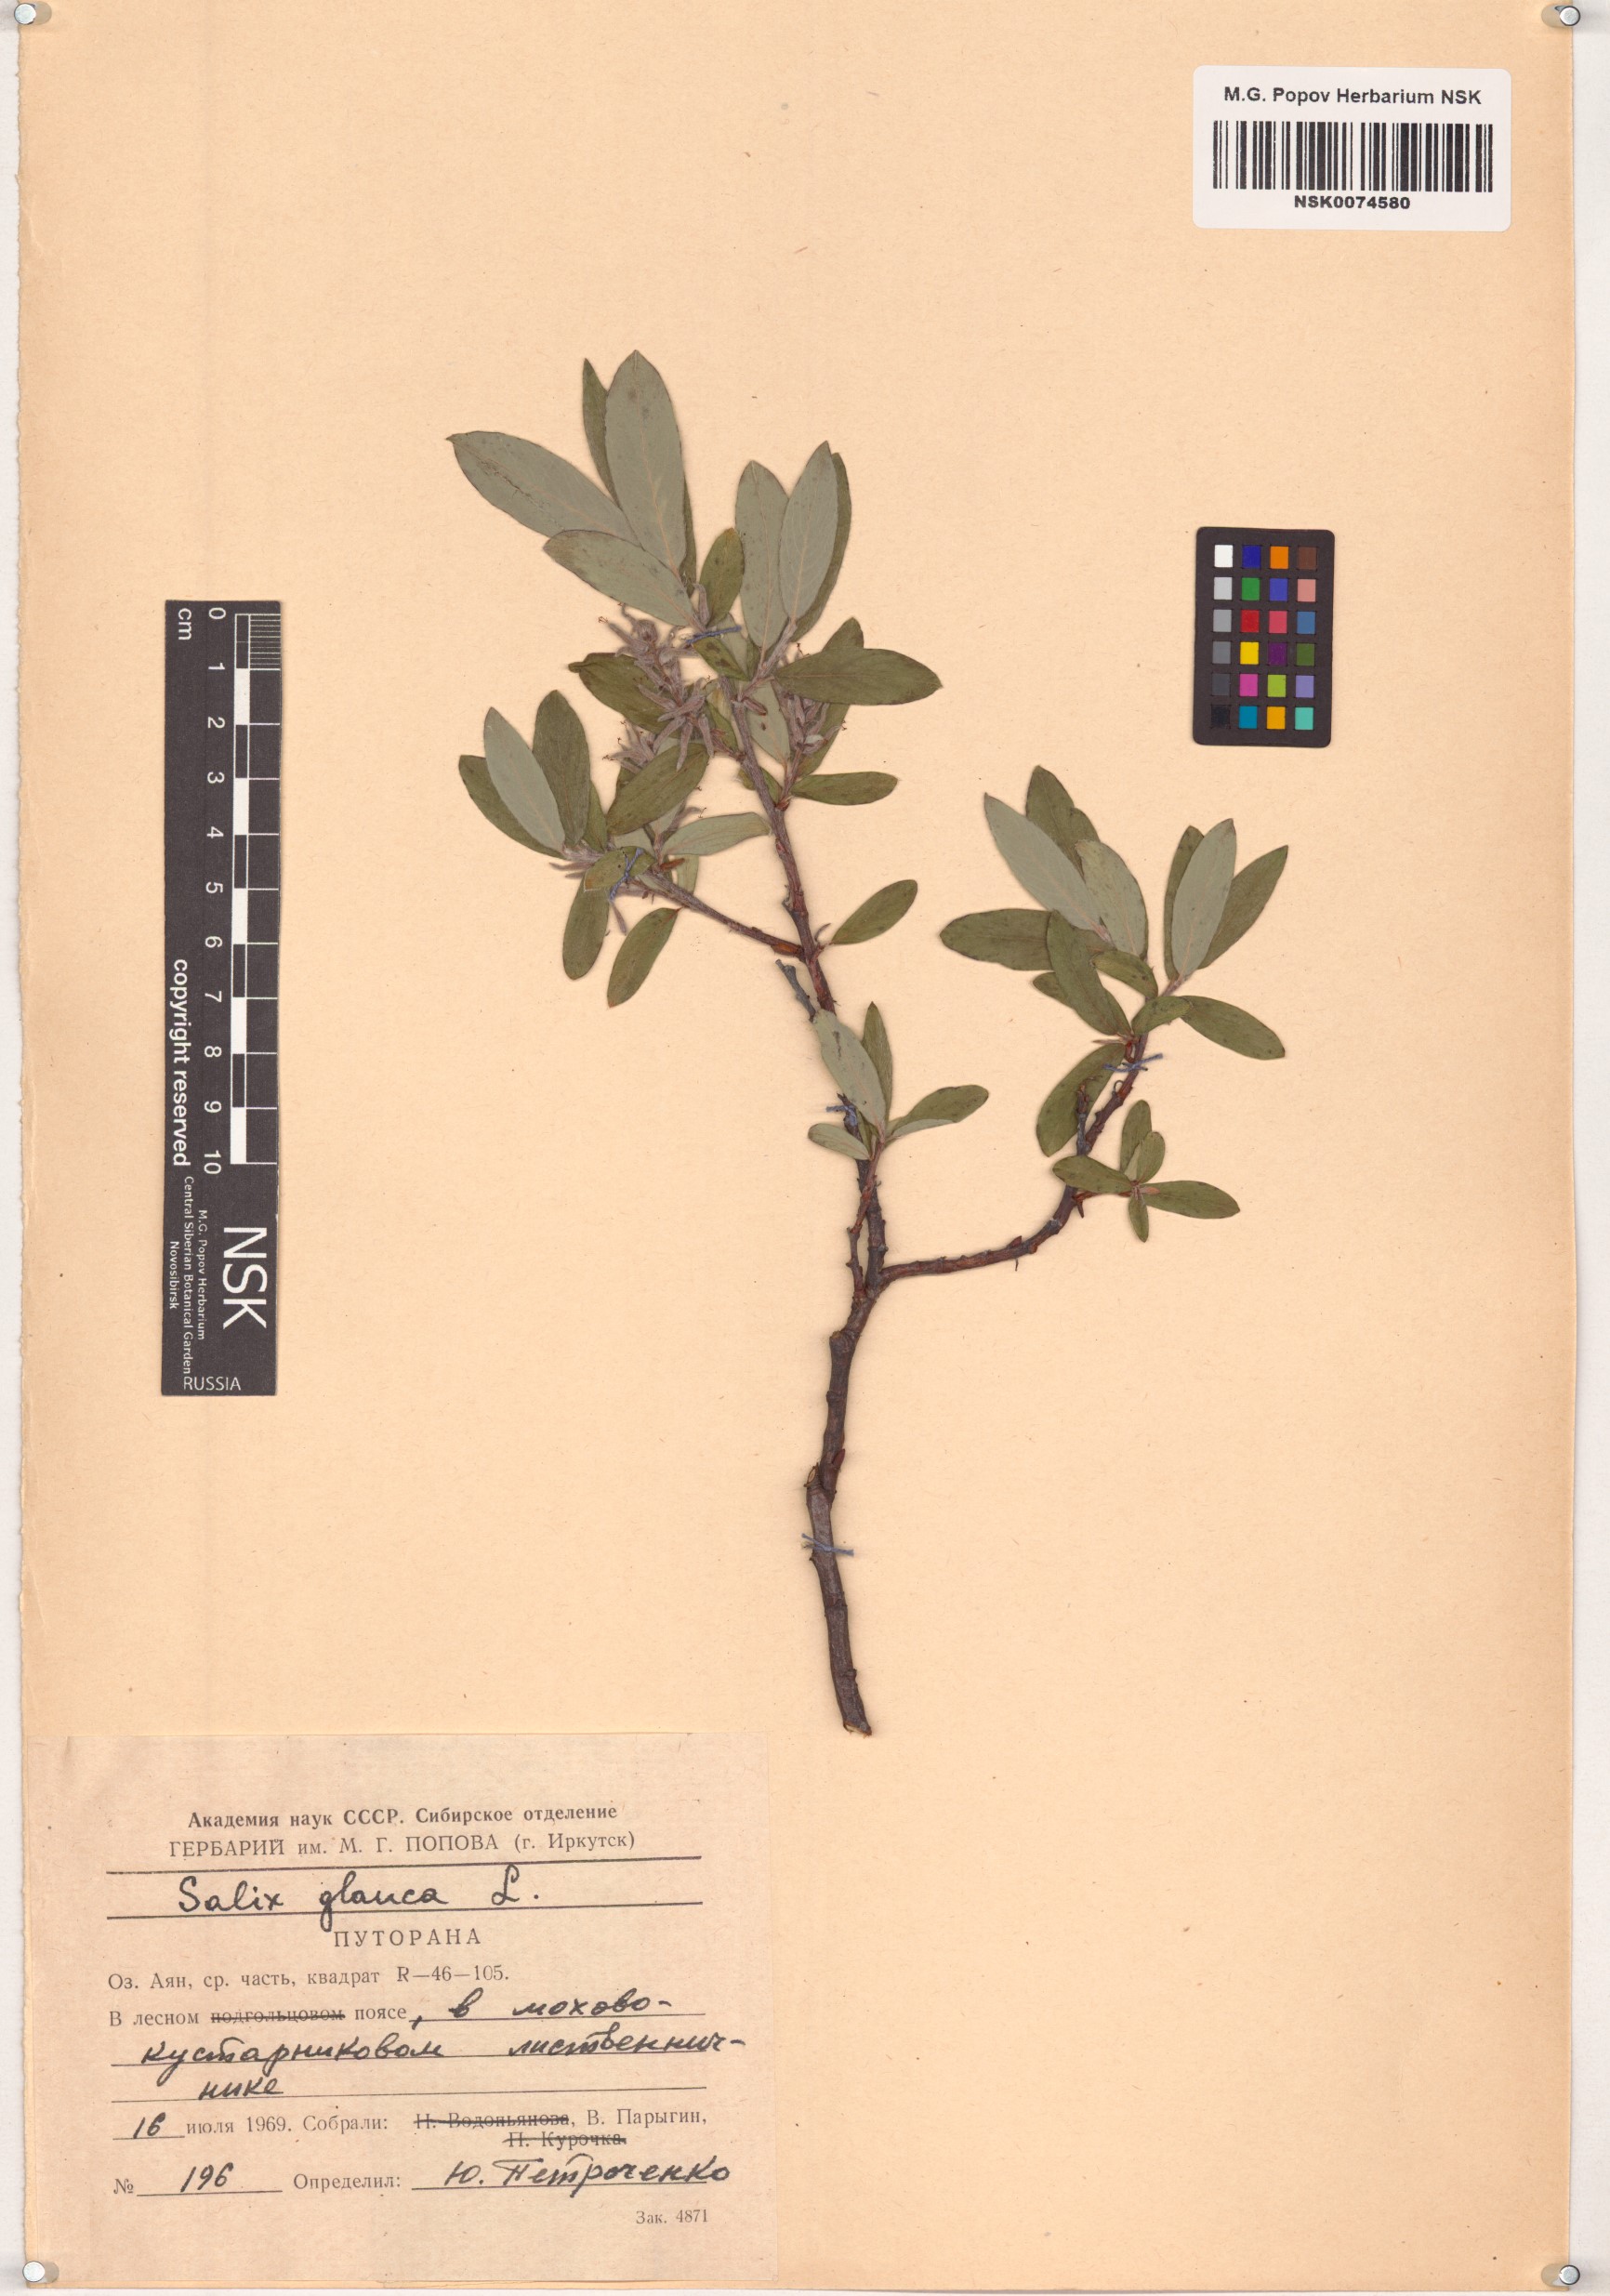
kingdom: Plantae
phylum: Tracheophyta
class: Magnoliopsida
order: Malpighiales
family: Salicaceae
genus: Salix
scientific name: Salix glauca
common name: Glaucous willow
